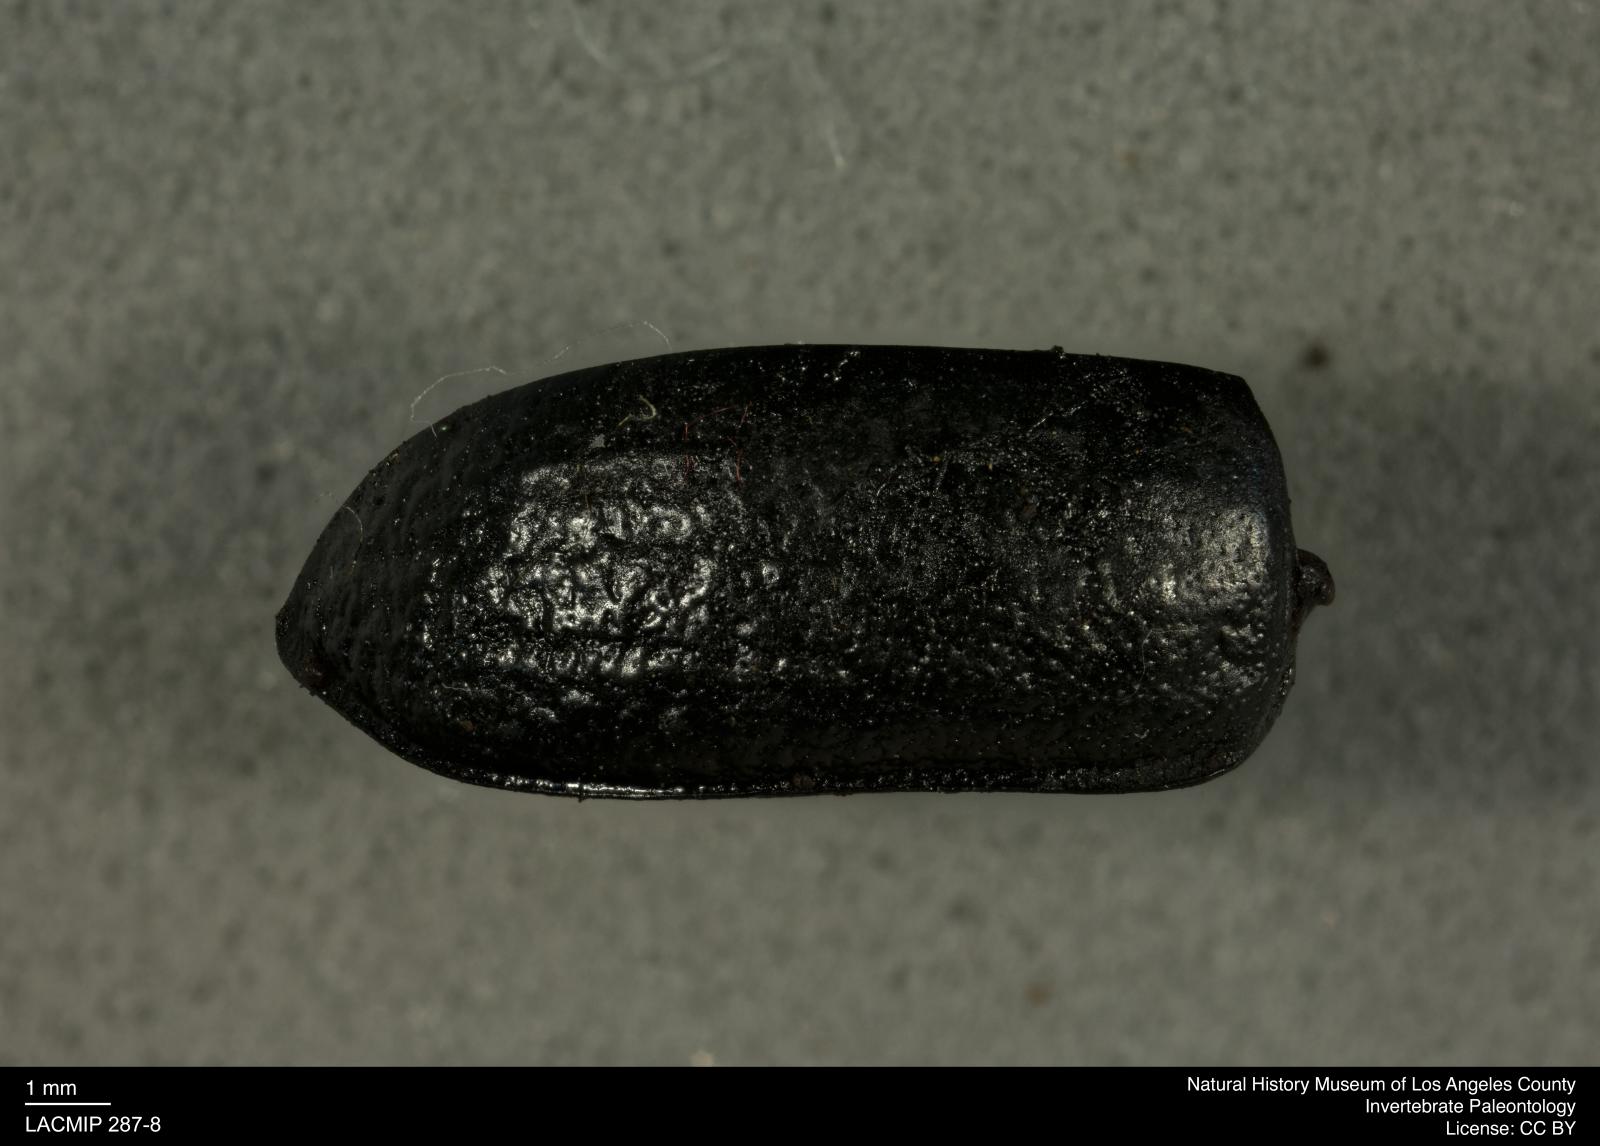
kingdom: Animalia
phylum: Arthropoda
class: Insecta
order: Coleoptera
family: Tenebrionidae
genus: Coniontis
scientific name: Coniontis abdominalis
